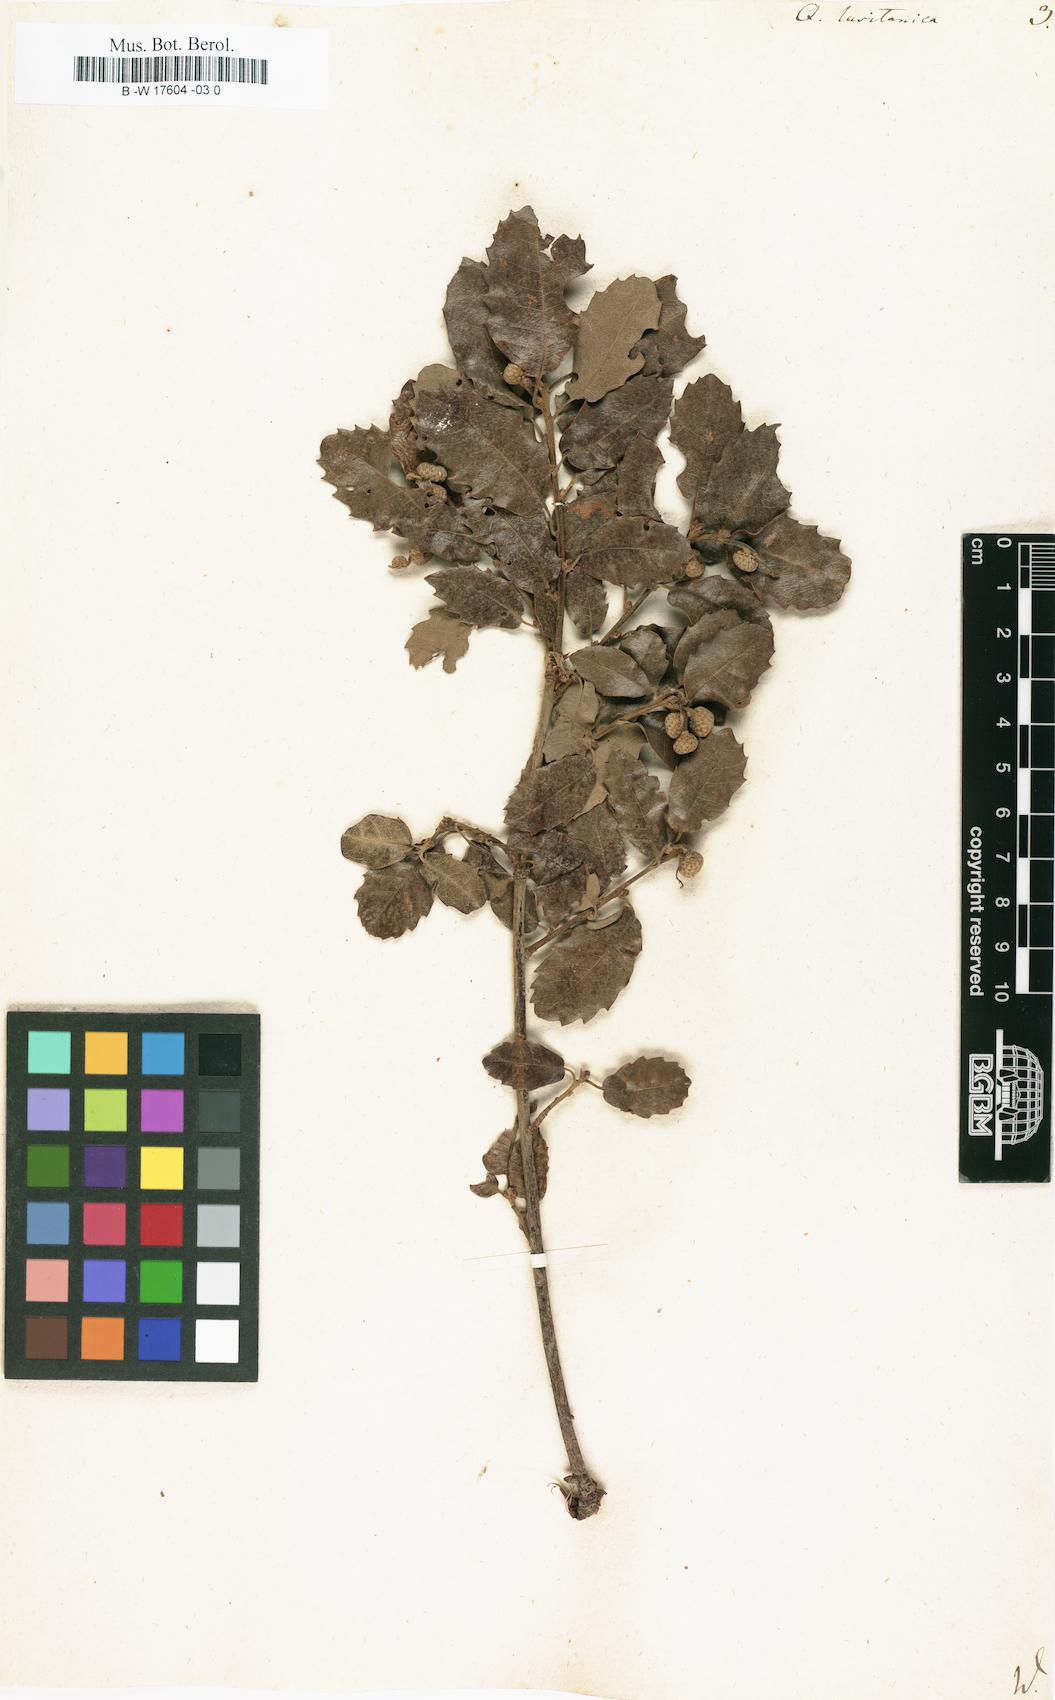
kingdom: Plantae
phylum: Tracheophyta
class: Magnoliopsida
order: Fagales
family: Fagaceae
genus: Quercus
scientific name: Quercus lusitanica
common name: Scrub gall oak
